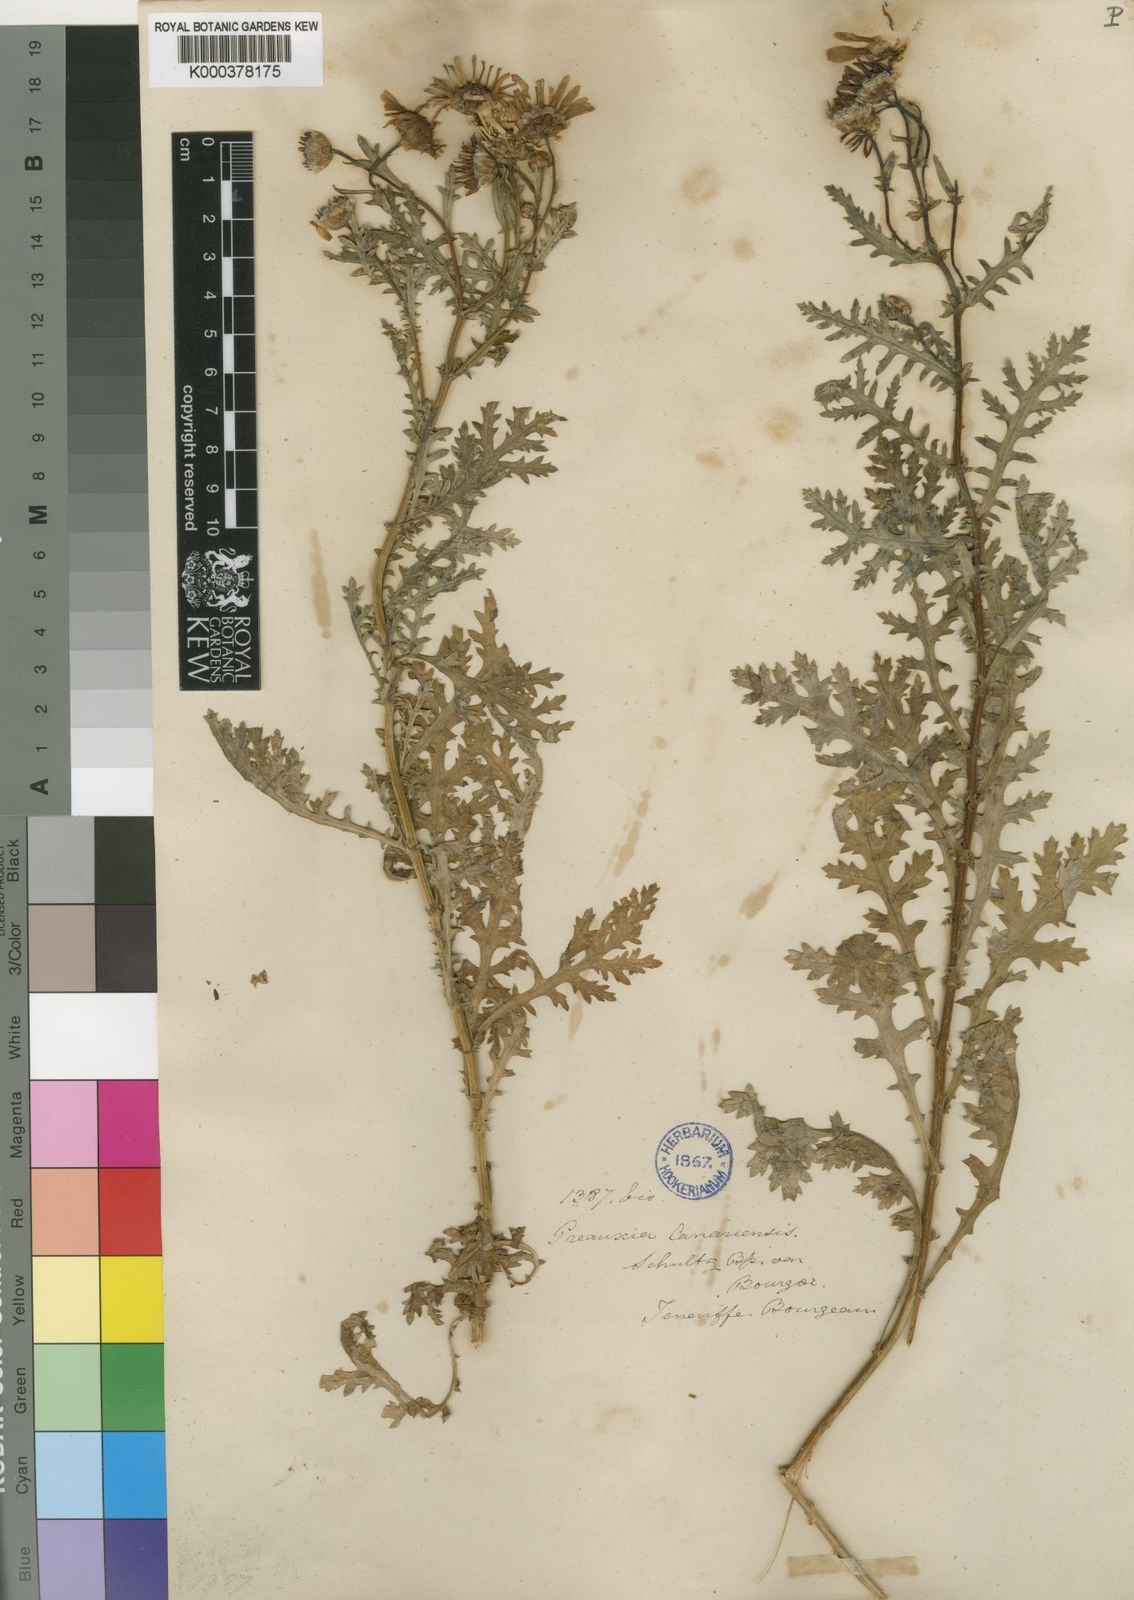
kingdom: Plantae
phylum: Tracheophyta
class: Magnoliopsida
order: Asterales
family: Asteraceae
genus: Argyranthemum
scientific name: Argyranthemum adauctum
